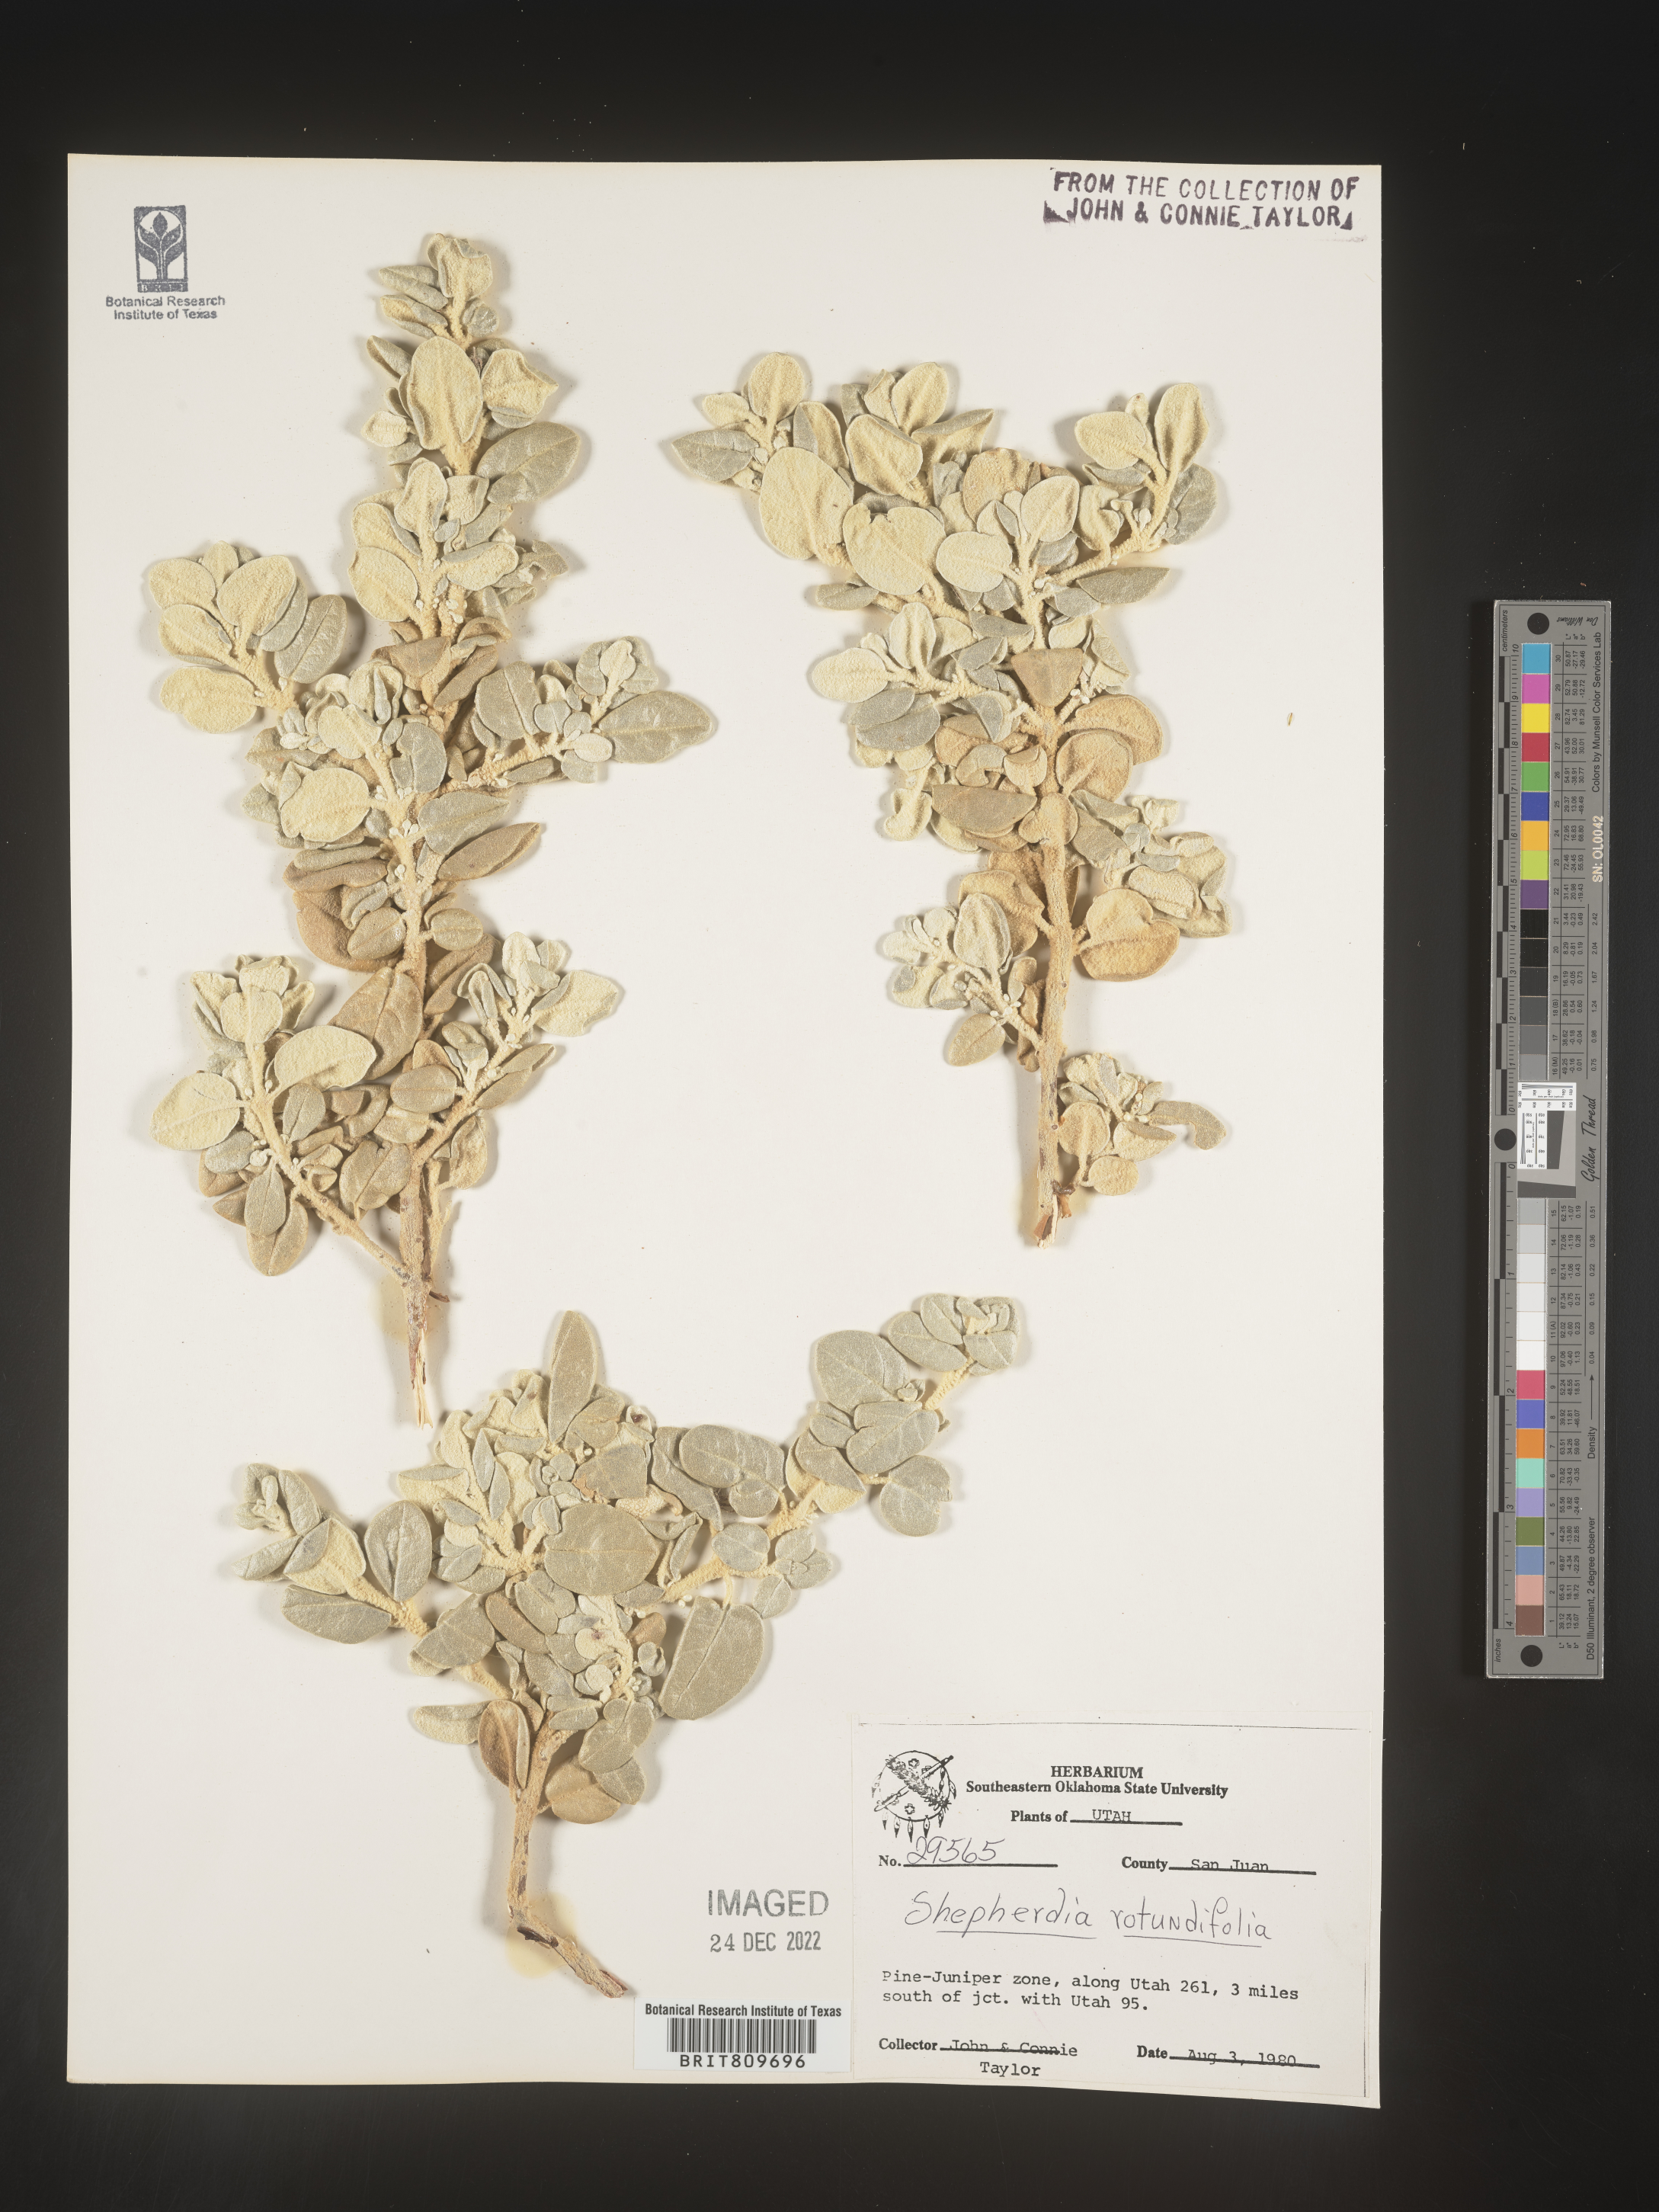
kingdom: Plantae
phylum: Tracheophyta
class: Magnoliopsida
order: Rosales
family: Elaeagnaceae
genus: Shepherdia
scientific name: Shepherdia rotundifolia
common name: Silverscale
